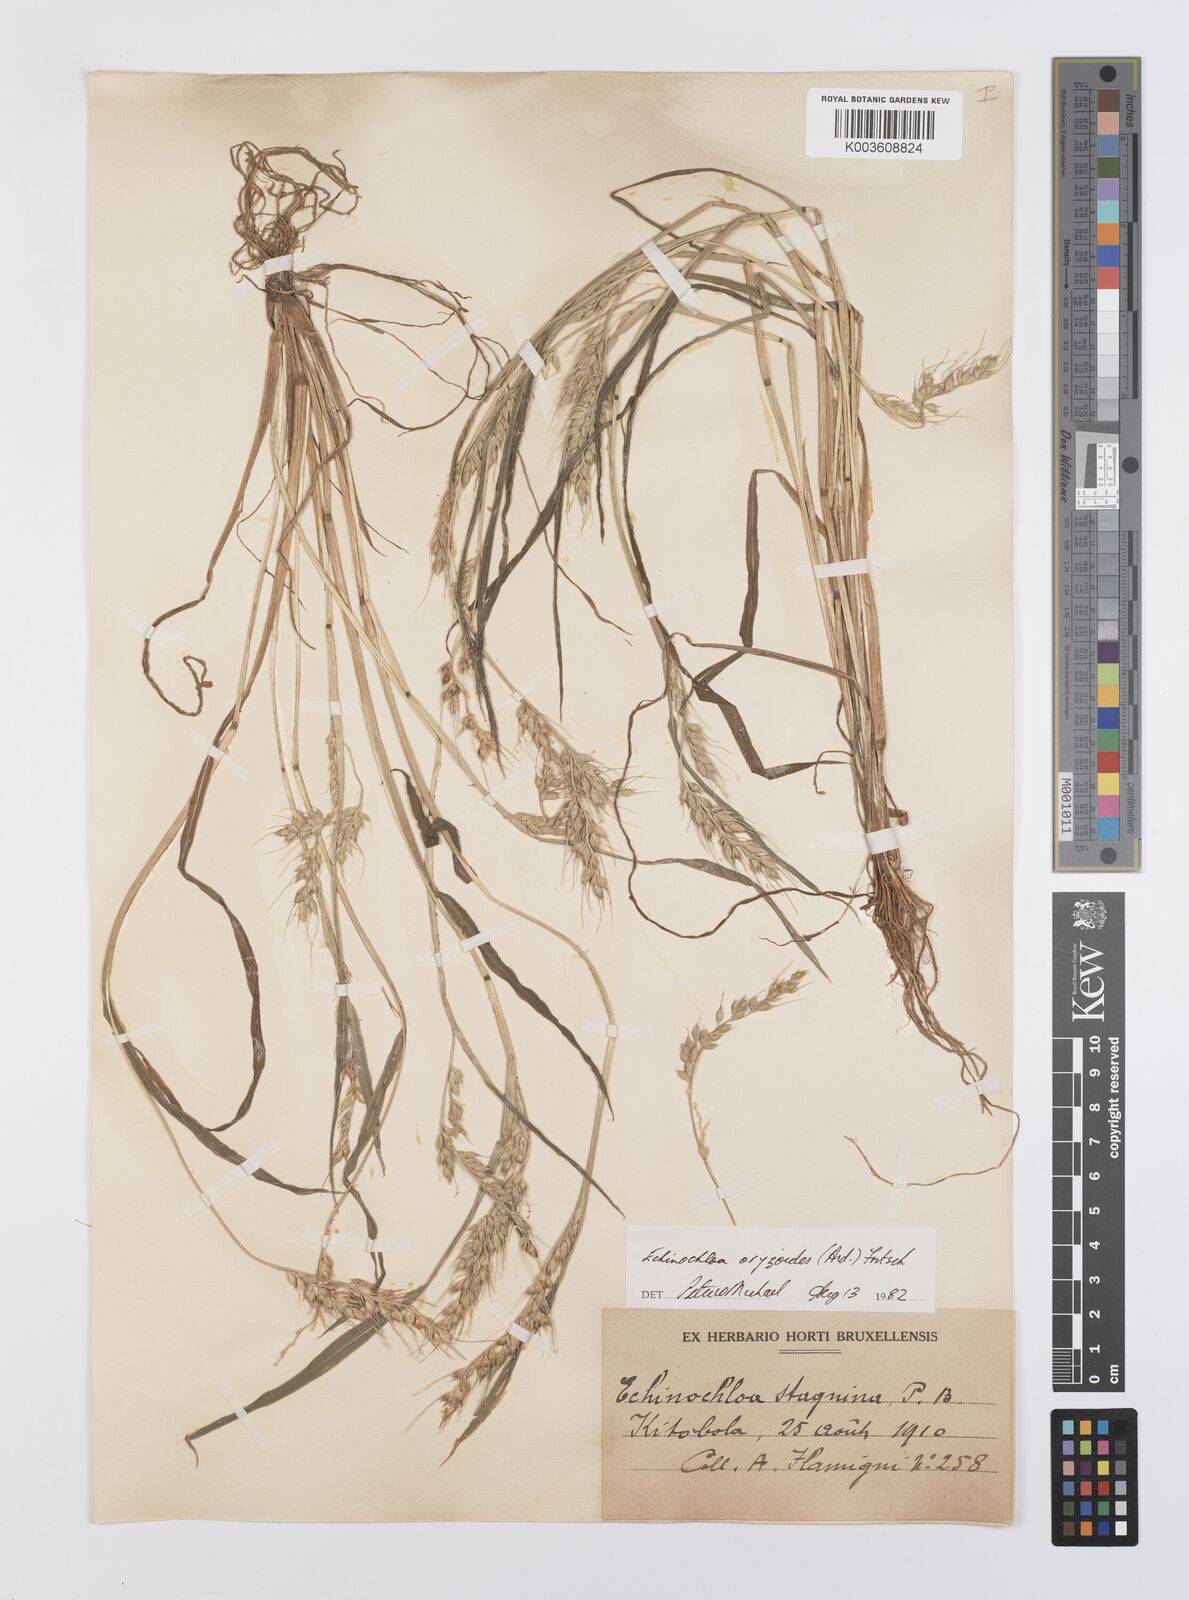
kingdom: Plantae
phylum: Tracheophyta
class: Liliopsida
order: Poales
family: Poaceae
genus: Echinochloa
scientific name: Echinochloa oryzoides
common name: Early water grass
